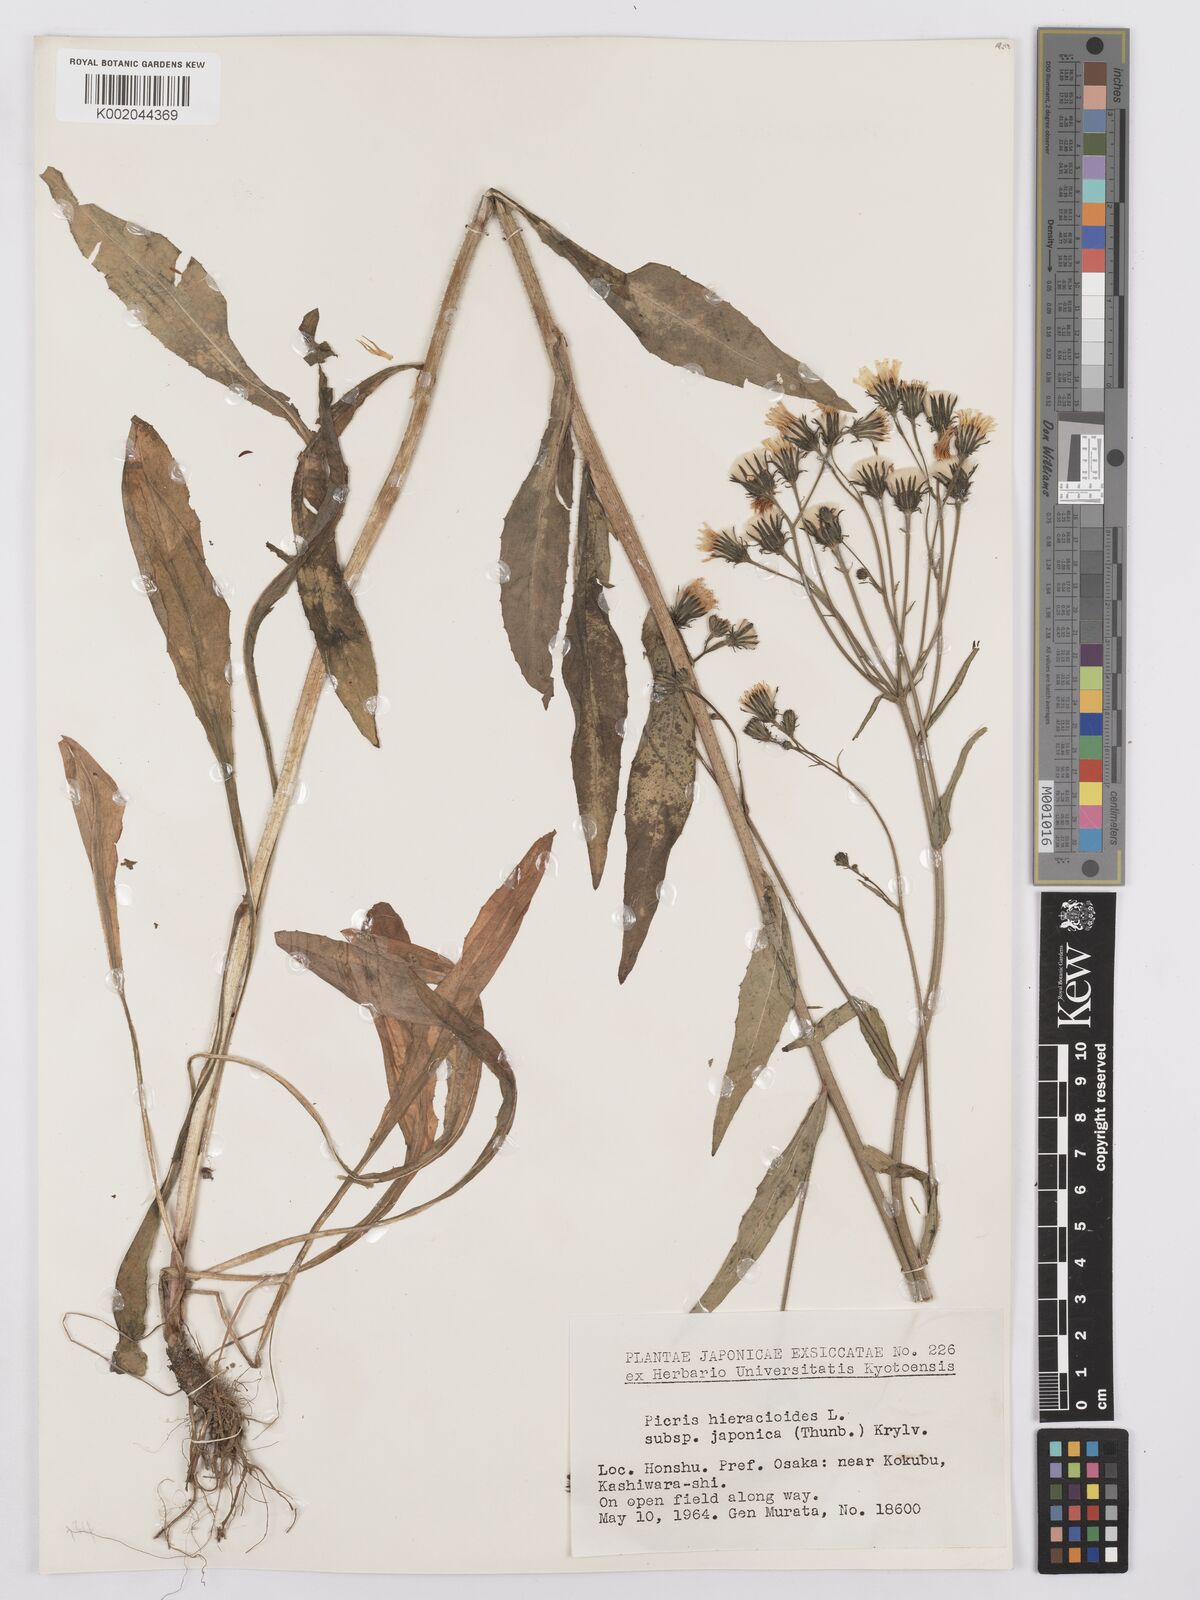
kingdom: Plantae
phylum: Tracheophyta
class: Magnoliopsida
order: Asterales
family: Asteraceae
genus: Picris
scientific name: Picris hieracioides
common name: Hawkweed oxtongue
